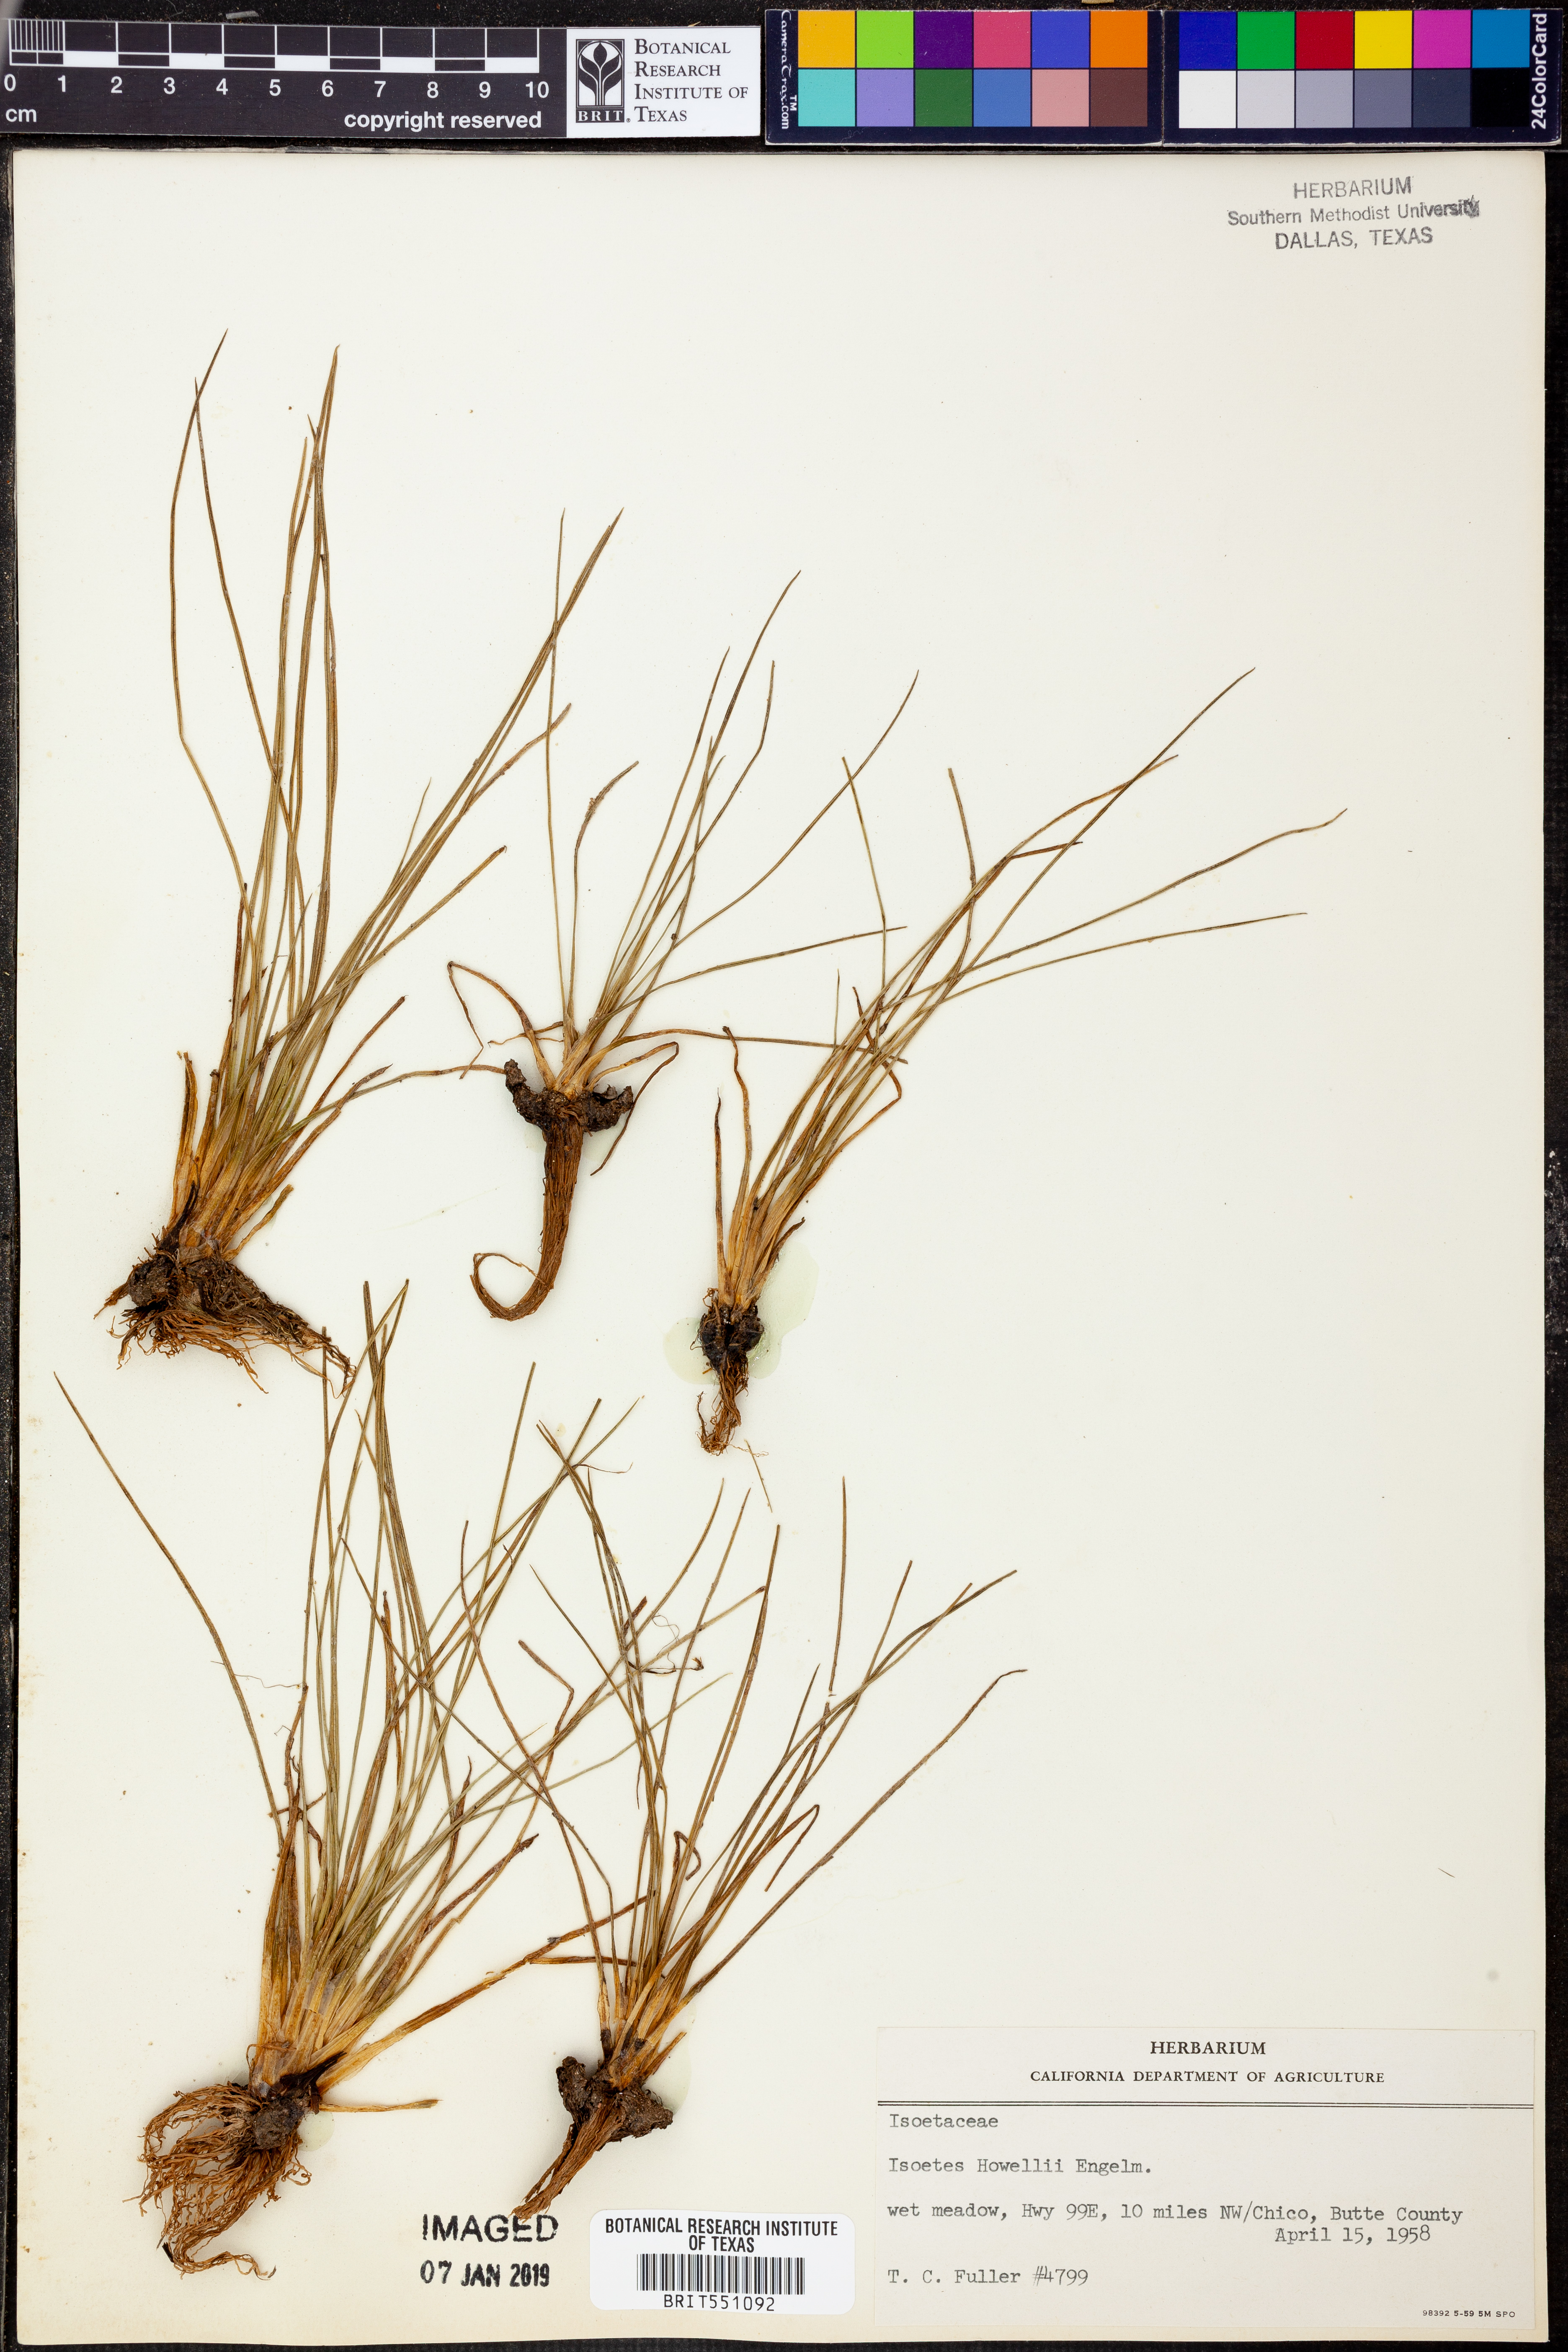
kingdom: Plantae
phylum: Tracheophyta
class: Lycopodiopsida
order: Isoetales
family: Isoetaceae
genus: Isoetes
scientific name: Isoetes howellii
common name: Howell's quillwort
